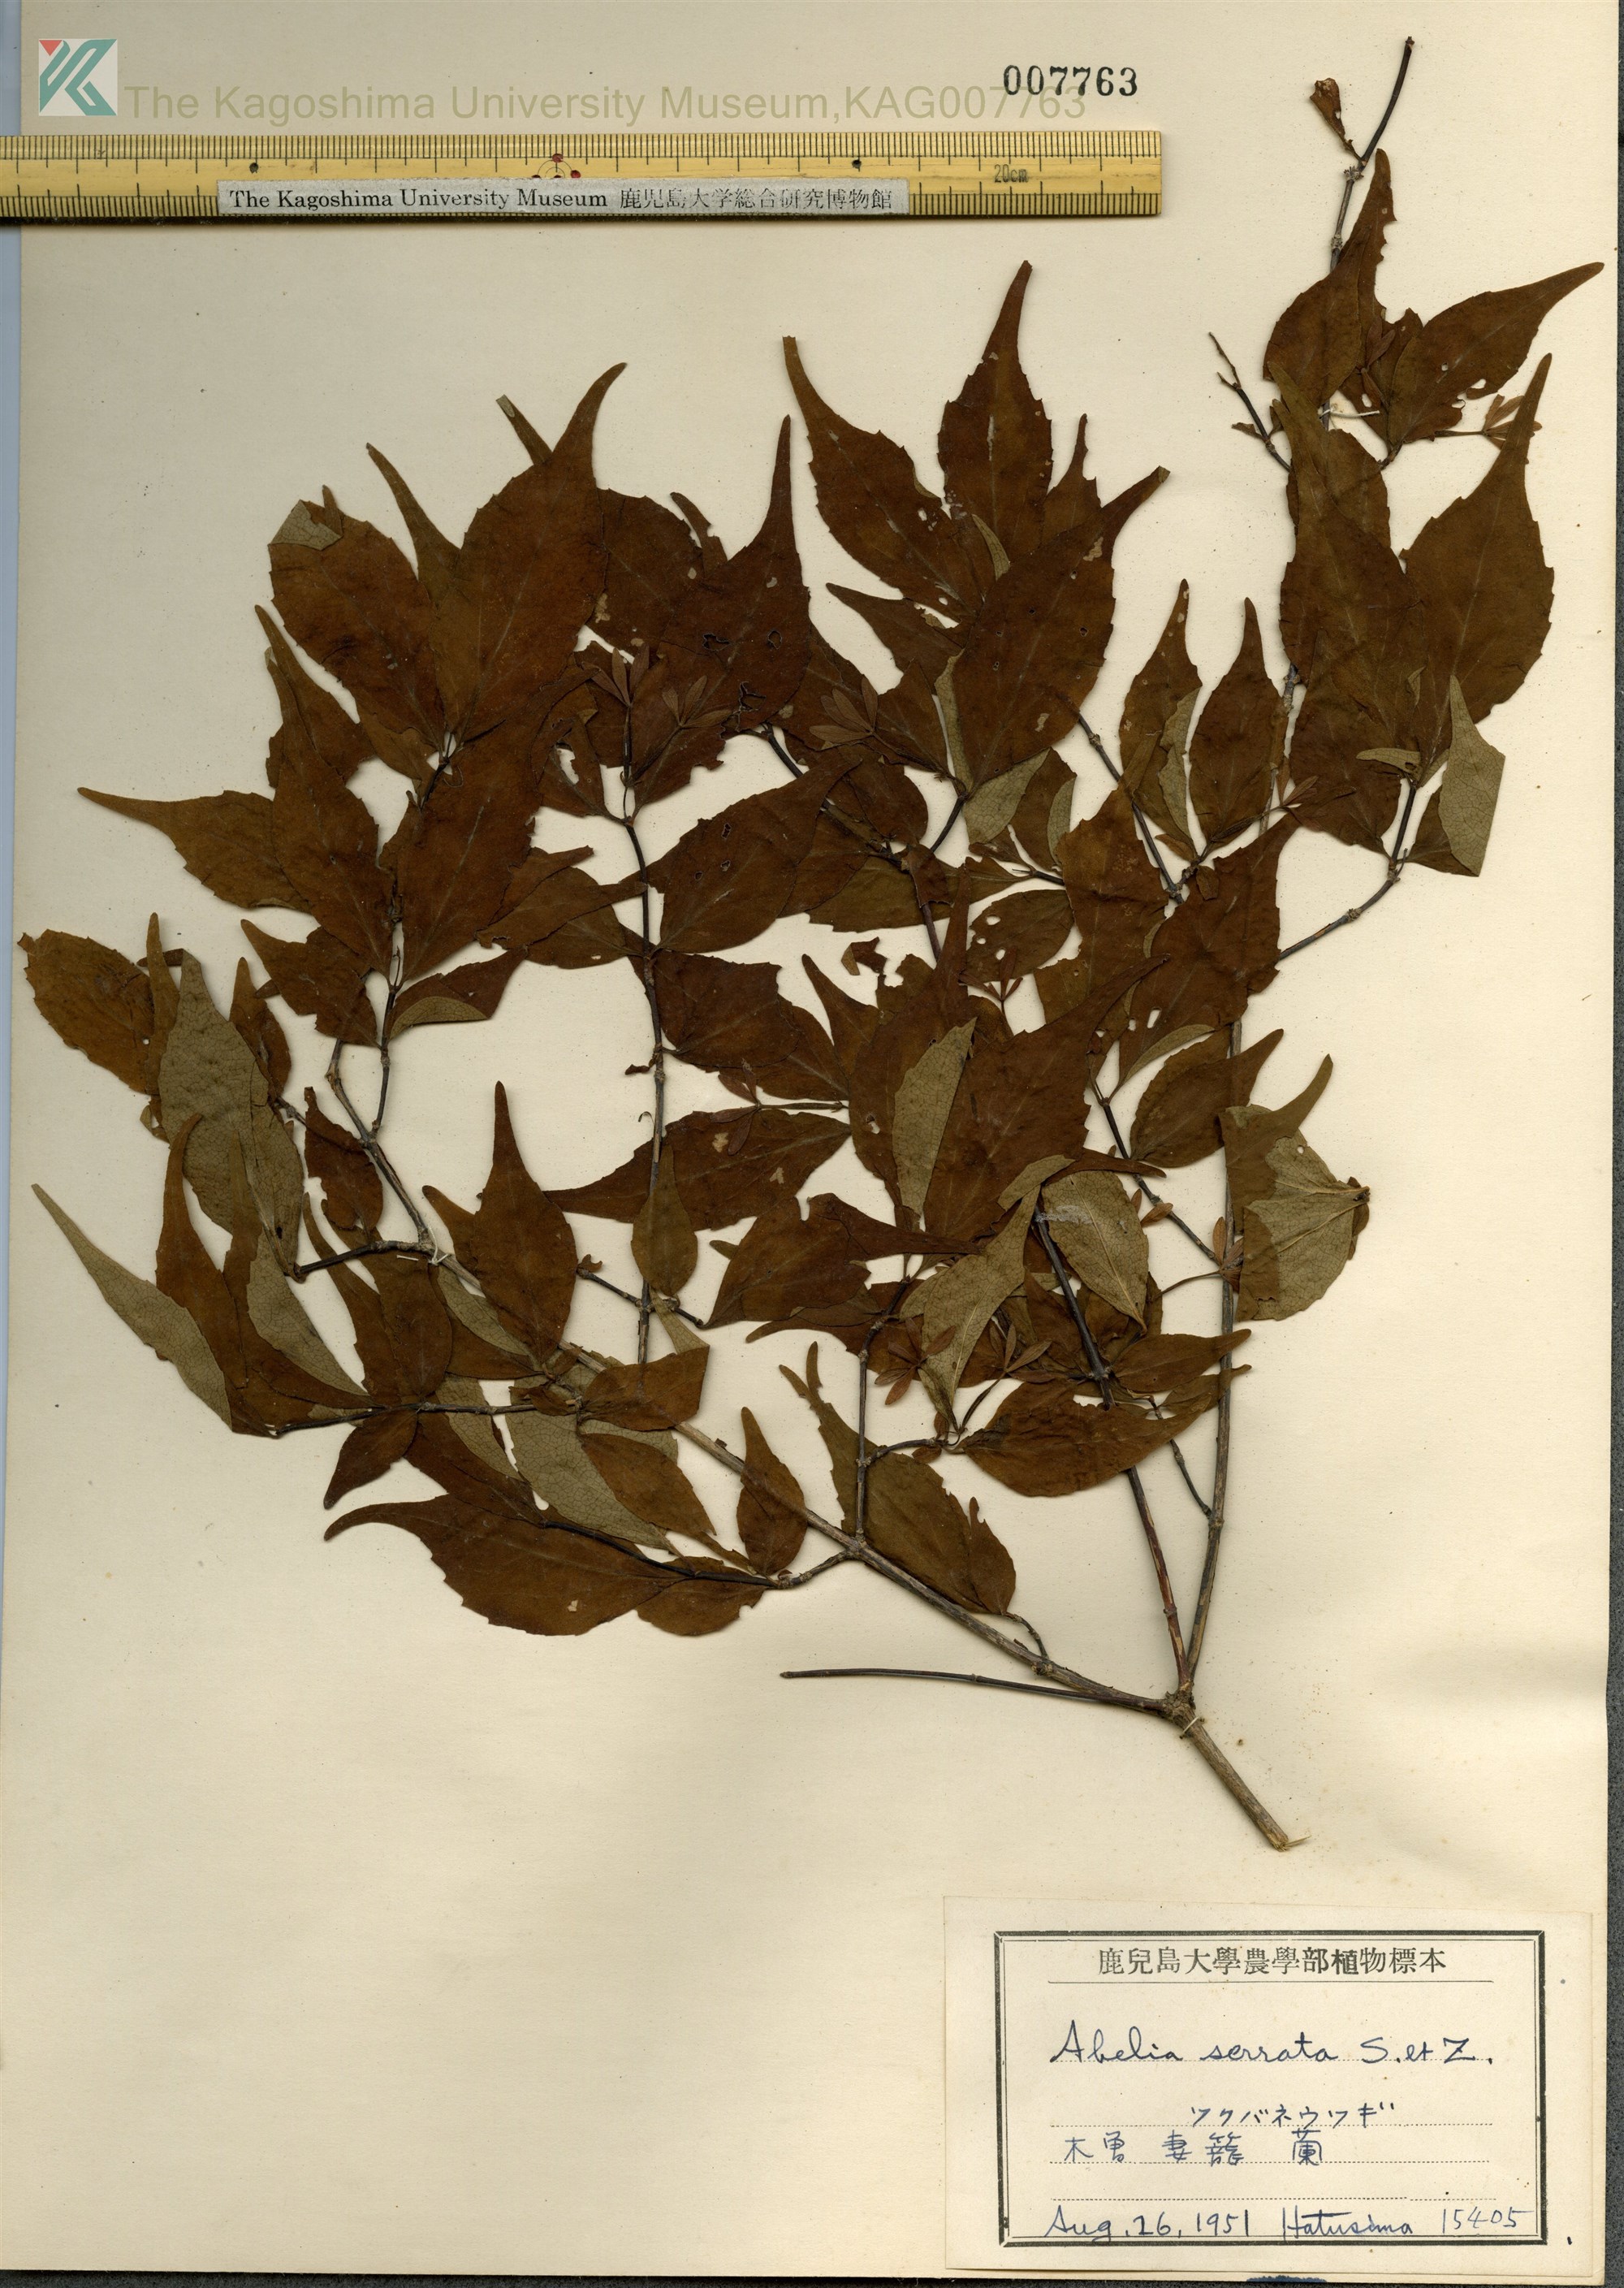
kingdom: Plantae
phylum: Tracheophyta
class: Magnoliopsida
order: Dipsacales
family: Caprifoliaceae
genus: Diabelia
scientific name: Diabelia spathulata
